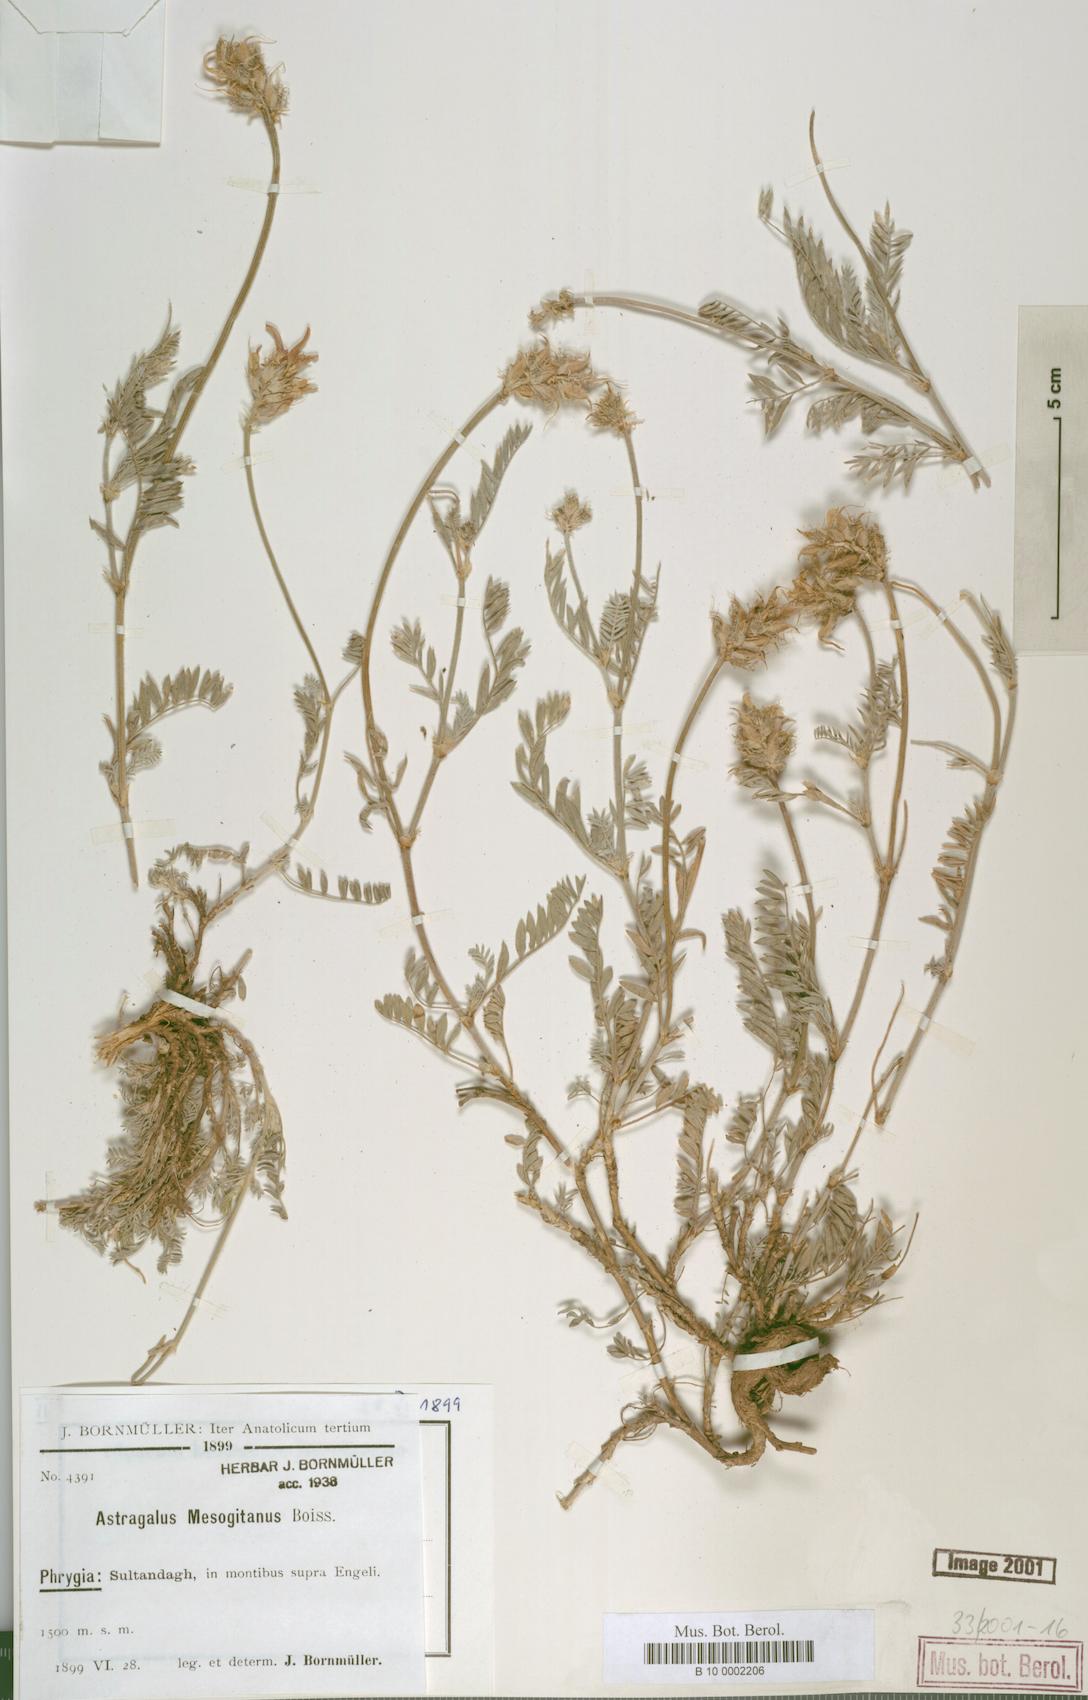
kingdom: Plantae
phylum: Tracheophyta
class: Magnoliopsida
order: Fabales
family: Fabaceae
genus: Astragalus
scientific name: Astragalus mesogitanus
